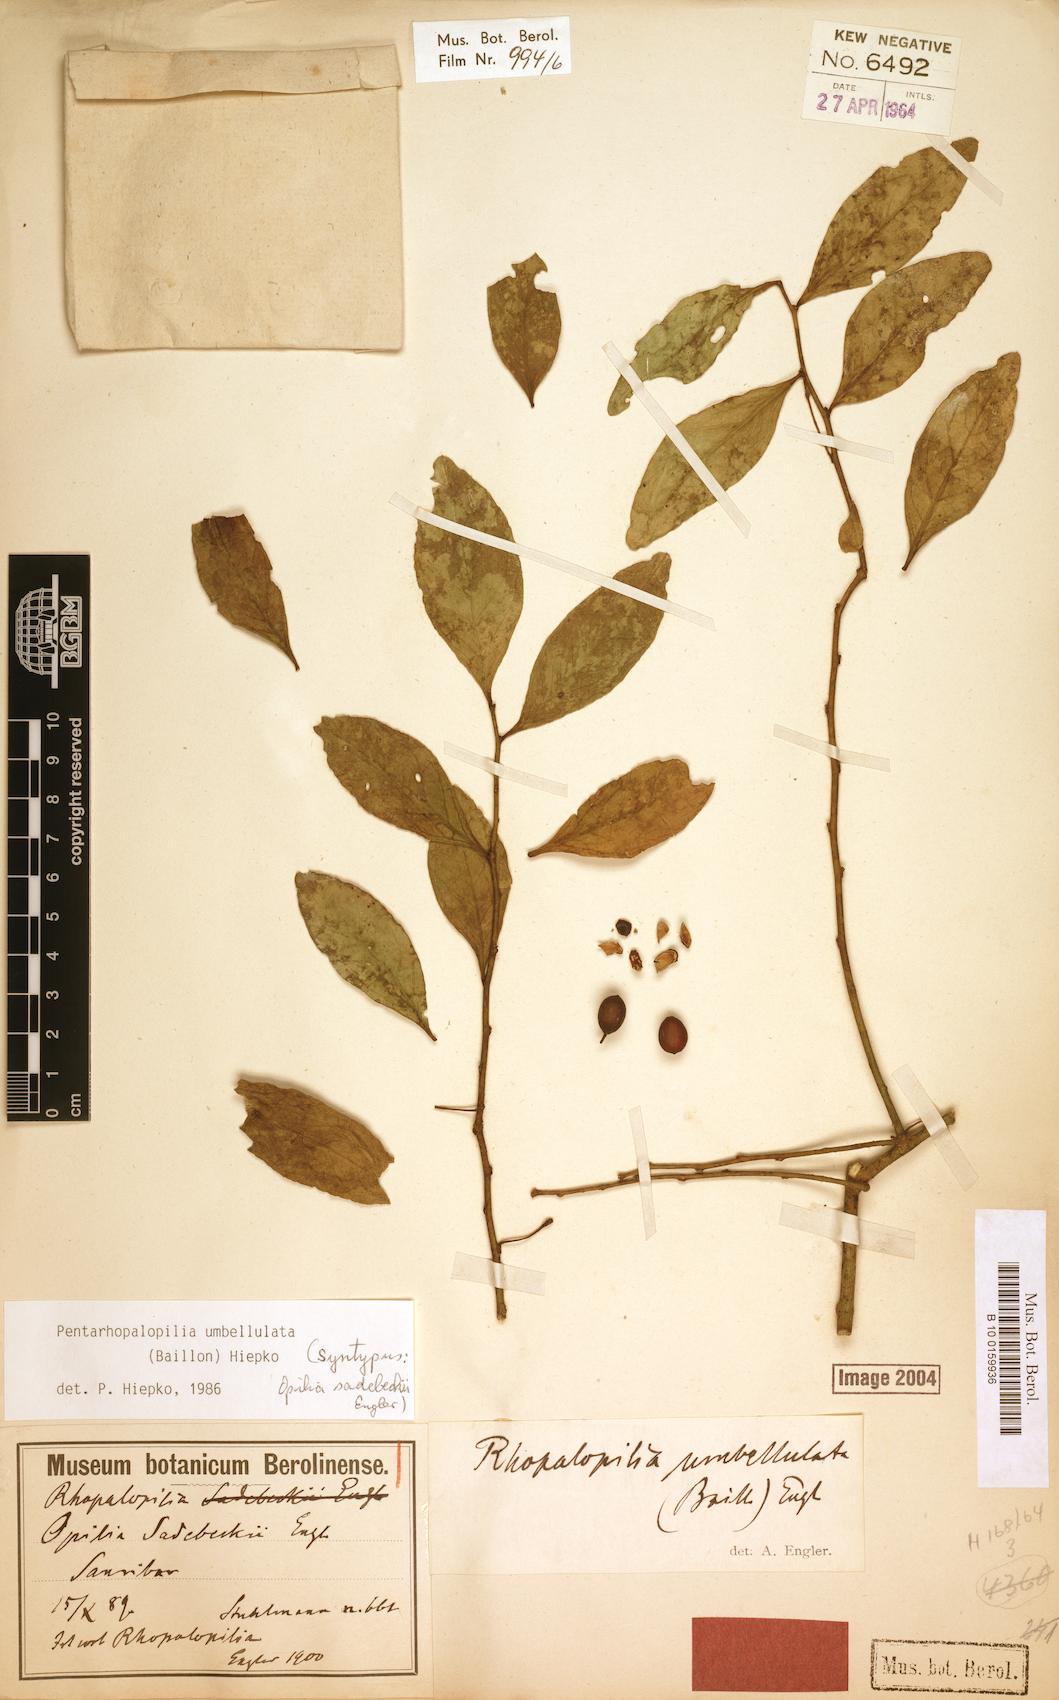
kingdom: Plantae
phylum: Tracheophyta
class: Magnoliopsida
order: Santalales
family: Opiliaceae
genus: Pentarhopalopilia
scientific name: Pentarhopalopilia umbellulata
